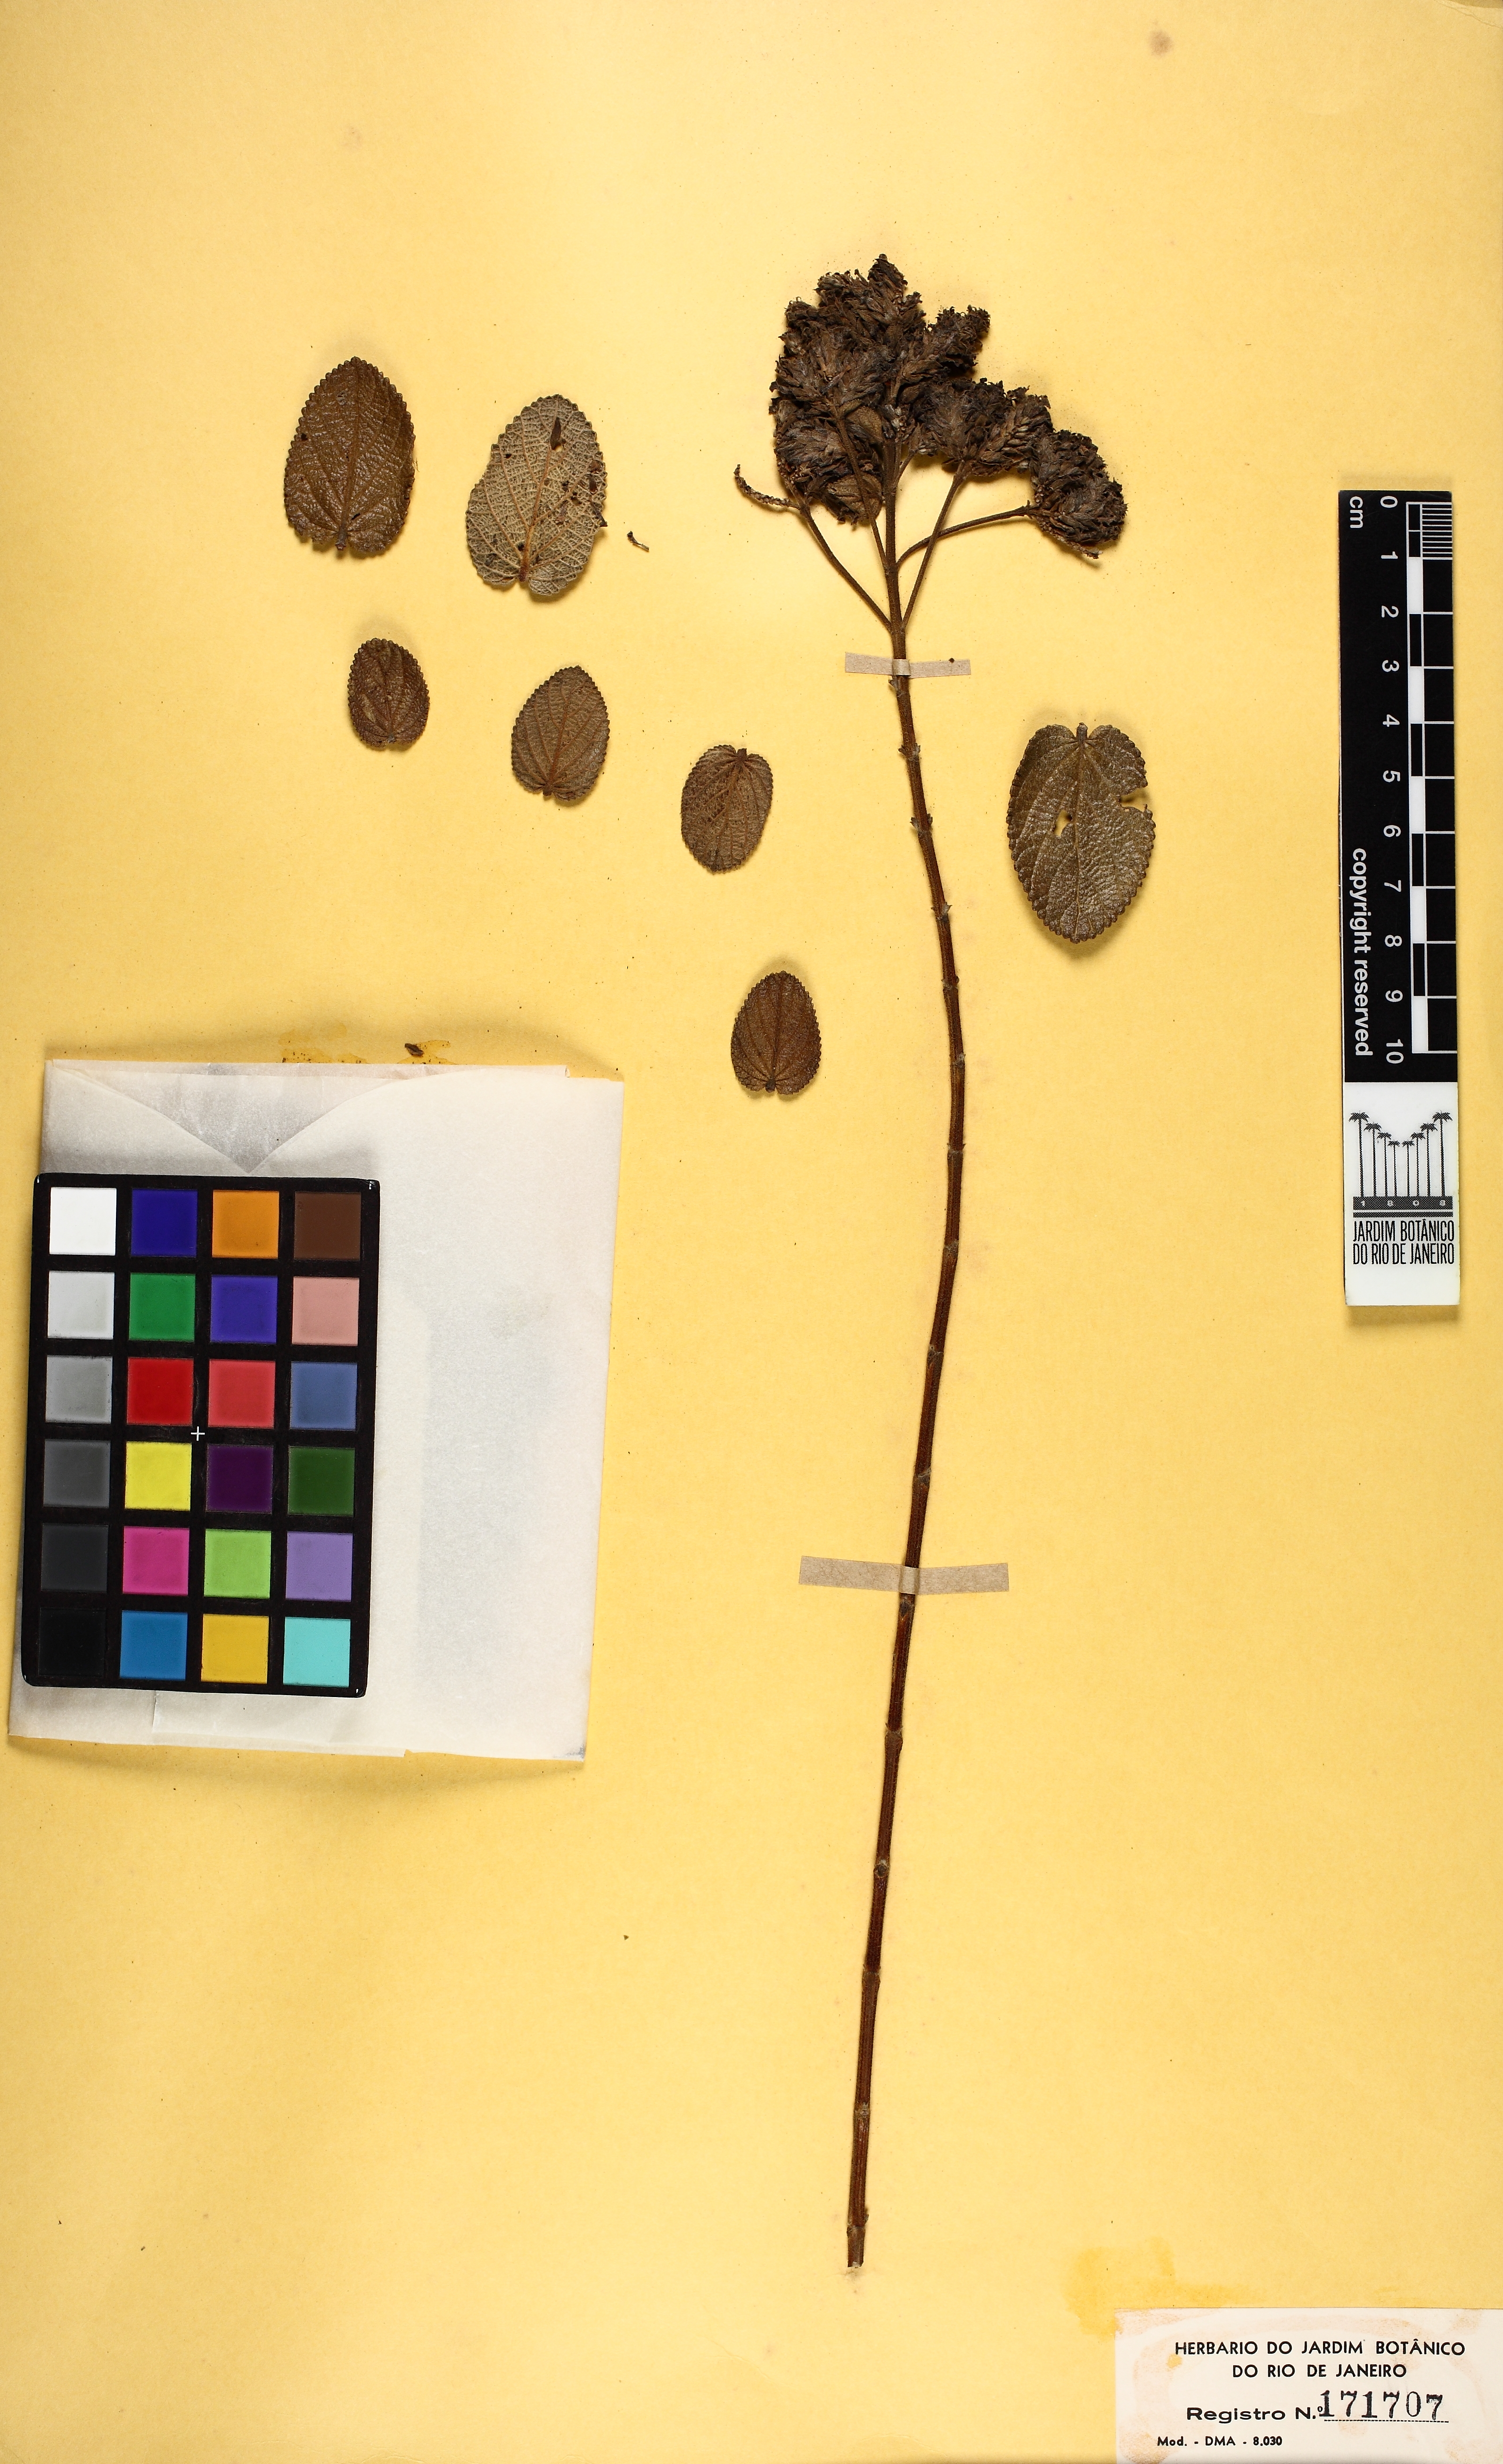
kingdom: Plantae
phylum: Tracheophyta
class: Magnoliopsida
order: Lamiales
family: Verbenaceae
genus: Lippia
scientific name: Lippia
